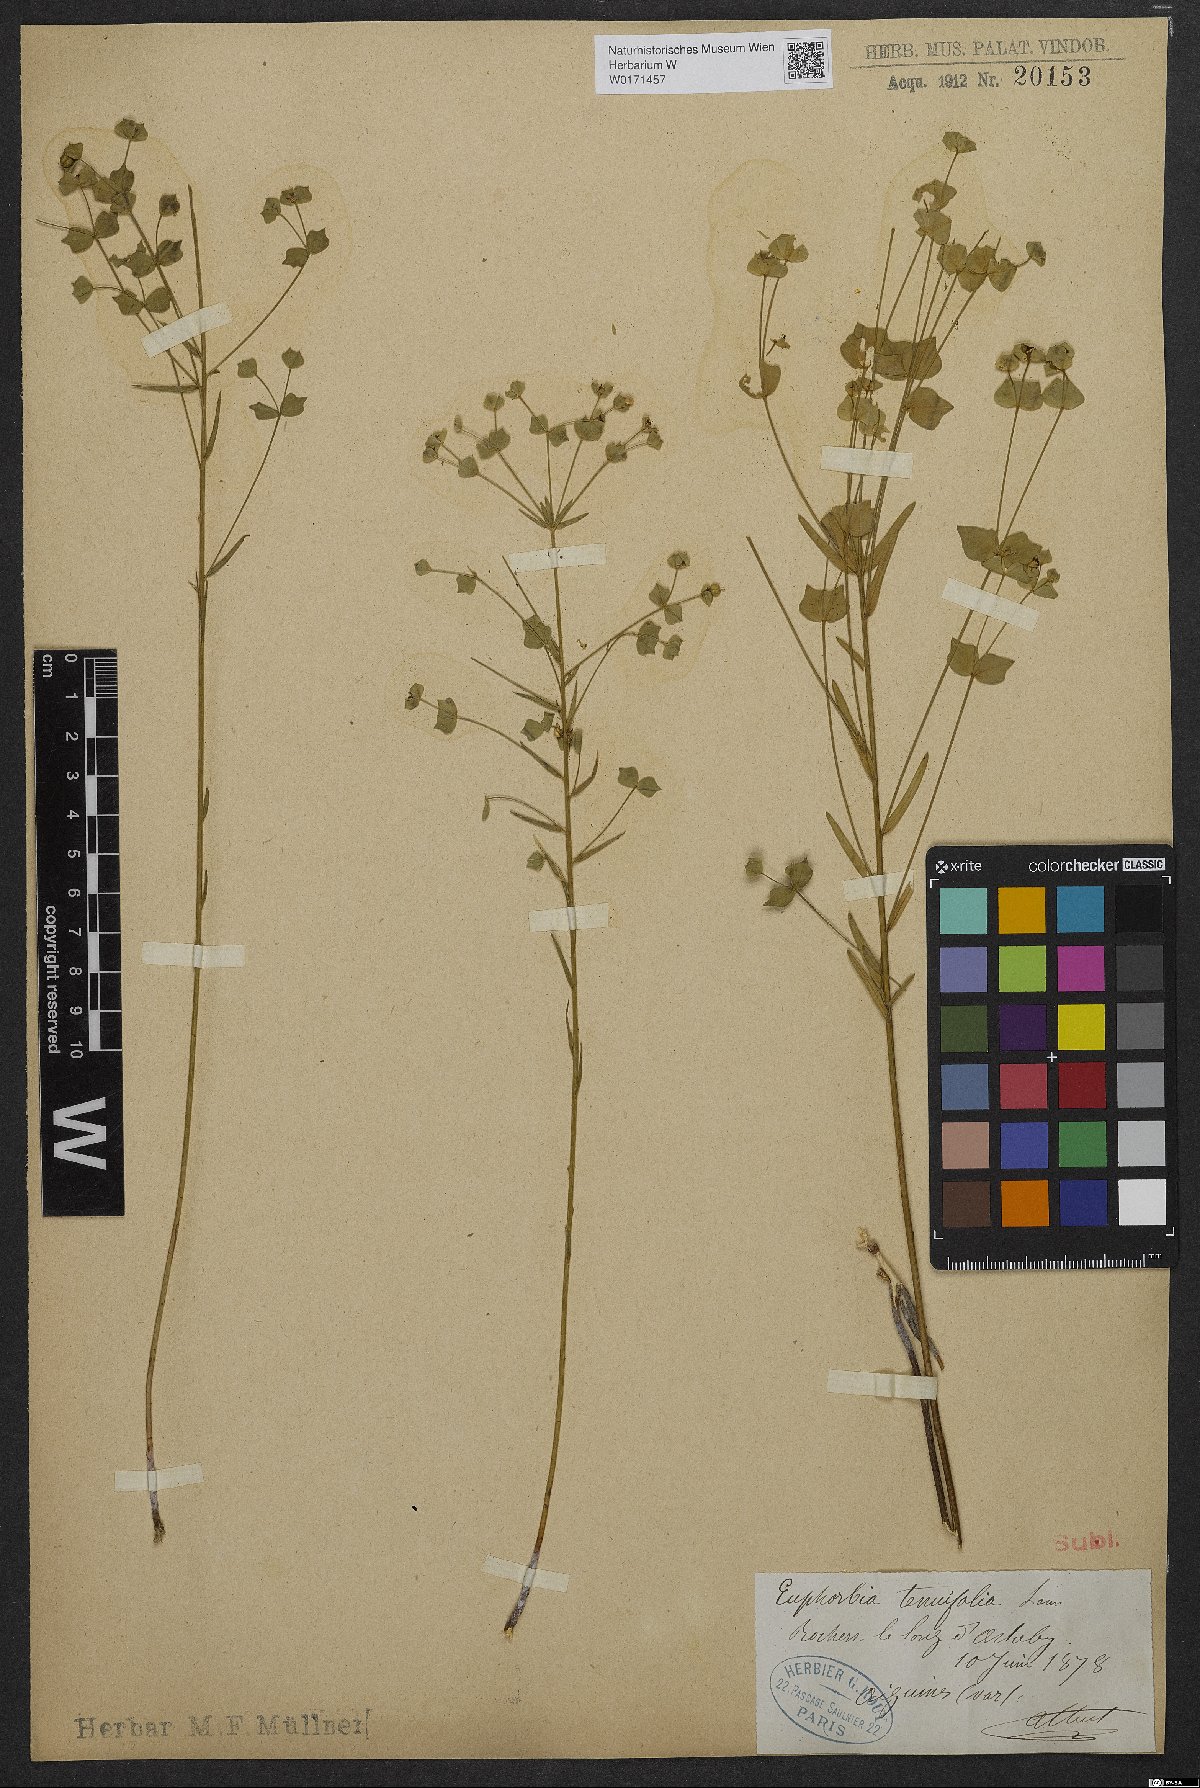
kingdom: Plantae
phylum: Tracheophyta
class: Magnoliopsida
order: Malpighiales
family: Euphorbiaceae
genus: Euphorbia
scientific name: Euphorbia graminifolia
